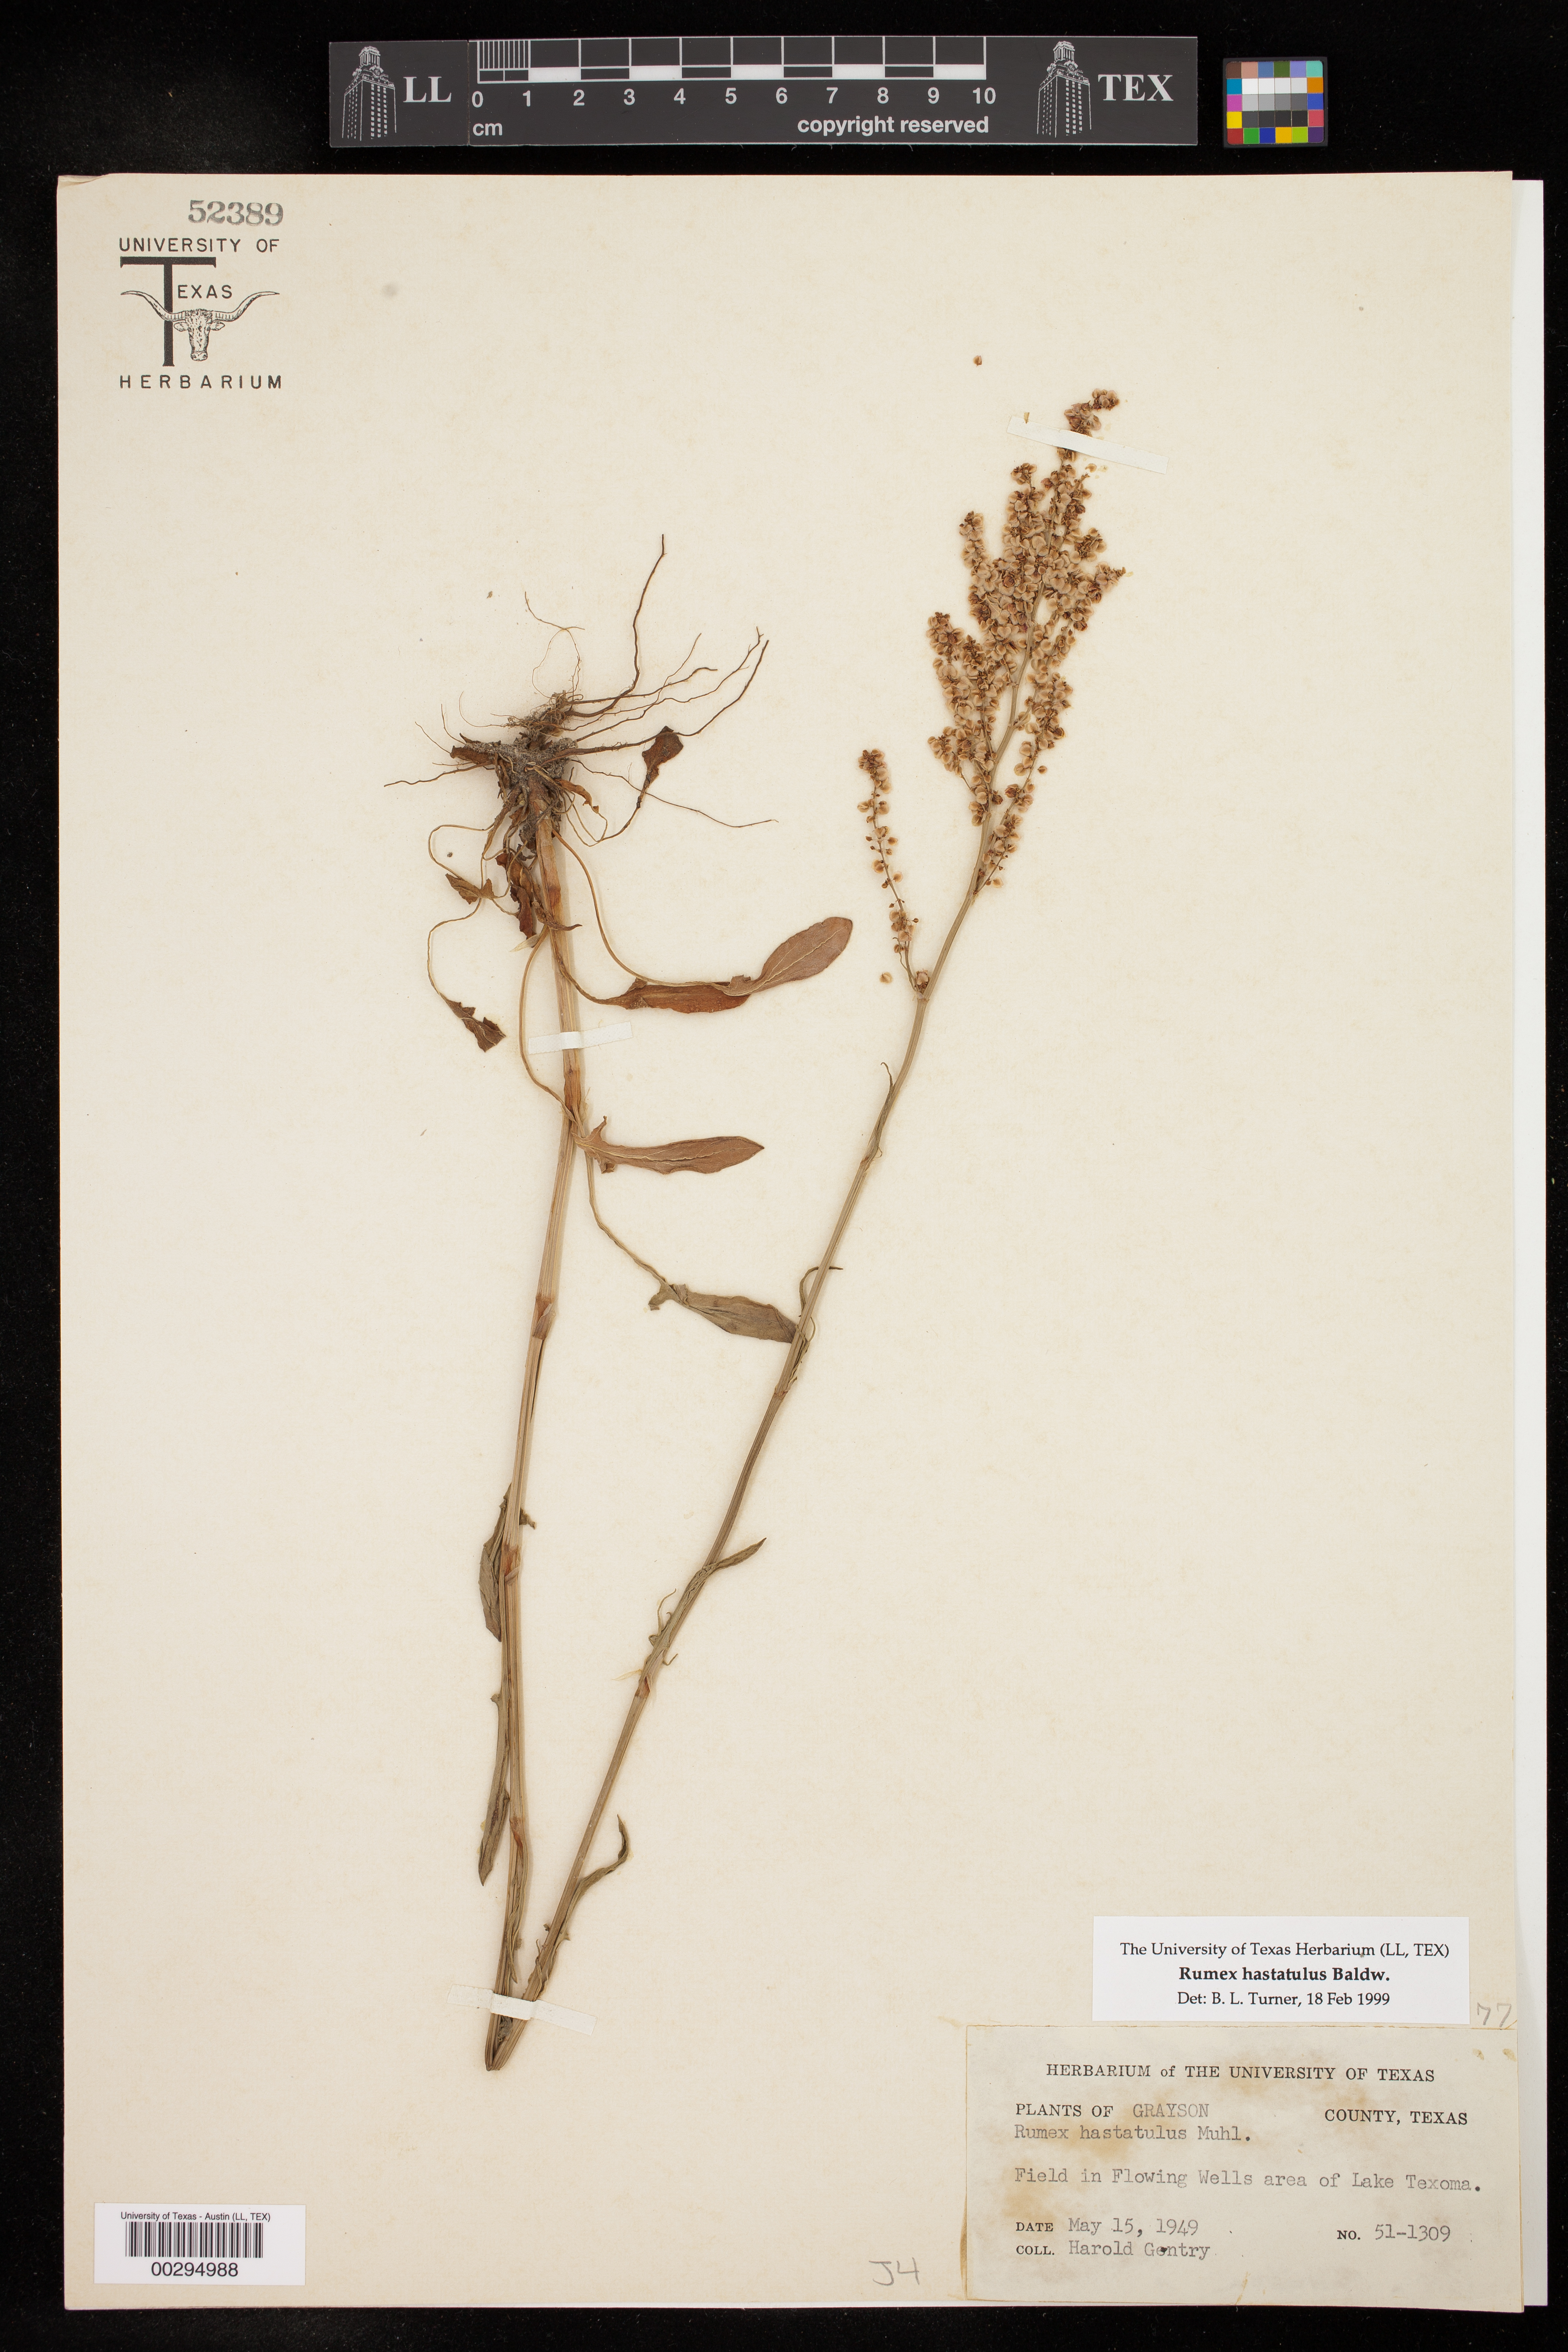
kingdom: Plantae
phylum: Tracheophyta
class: Magnoliopsida
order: Caryophyllales
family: Polygonaceae
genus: Rumex
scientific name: Rumex hastatulus
